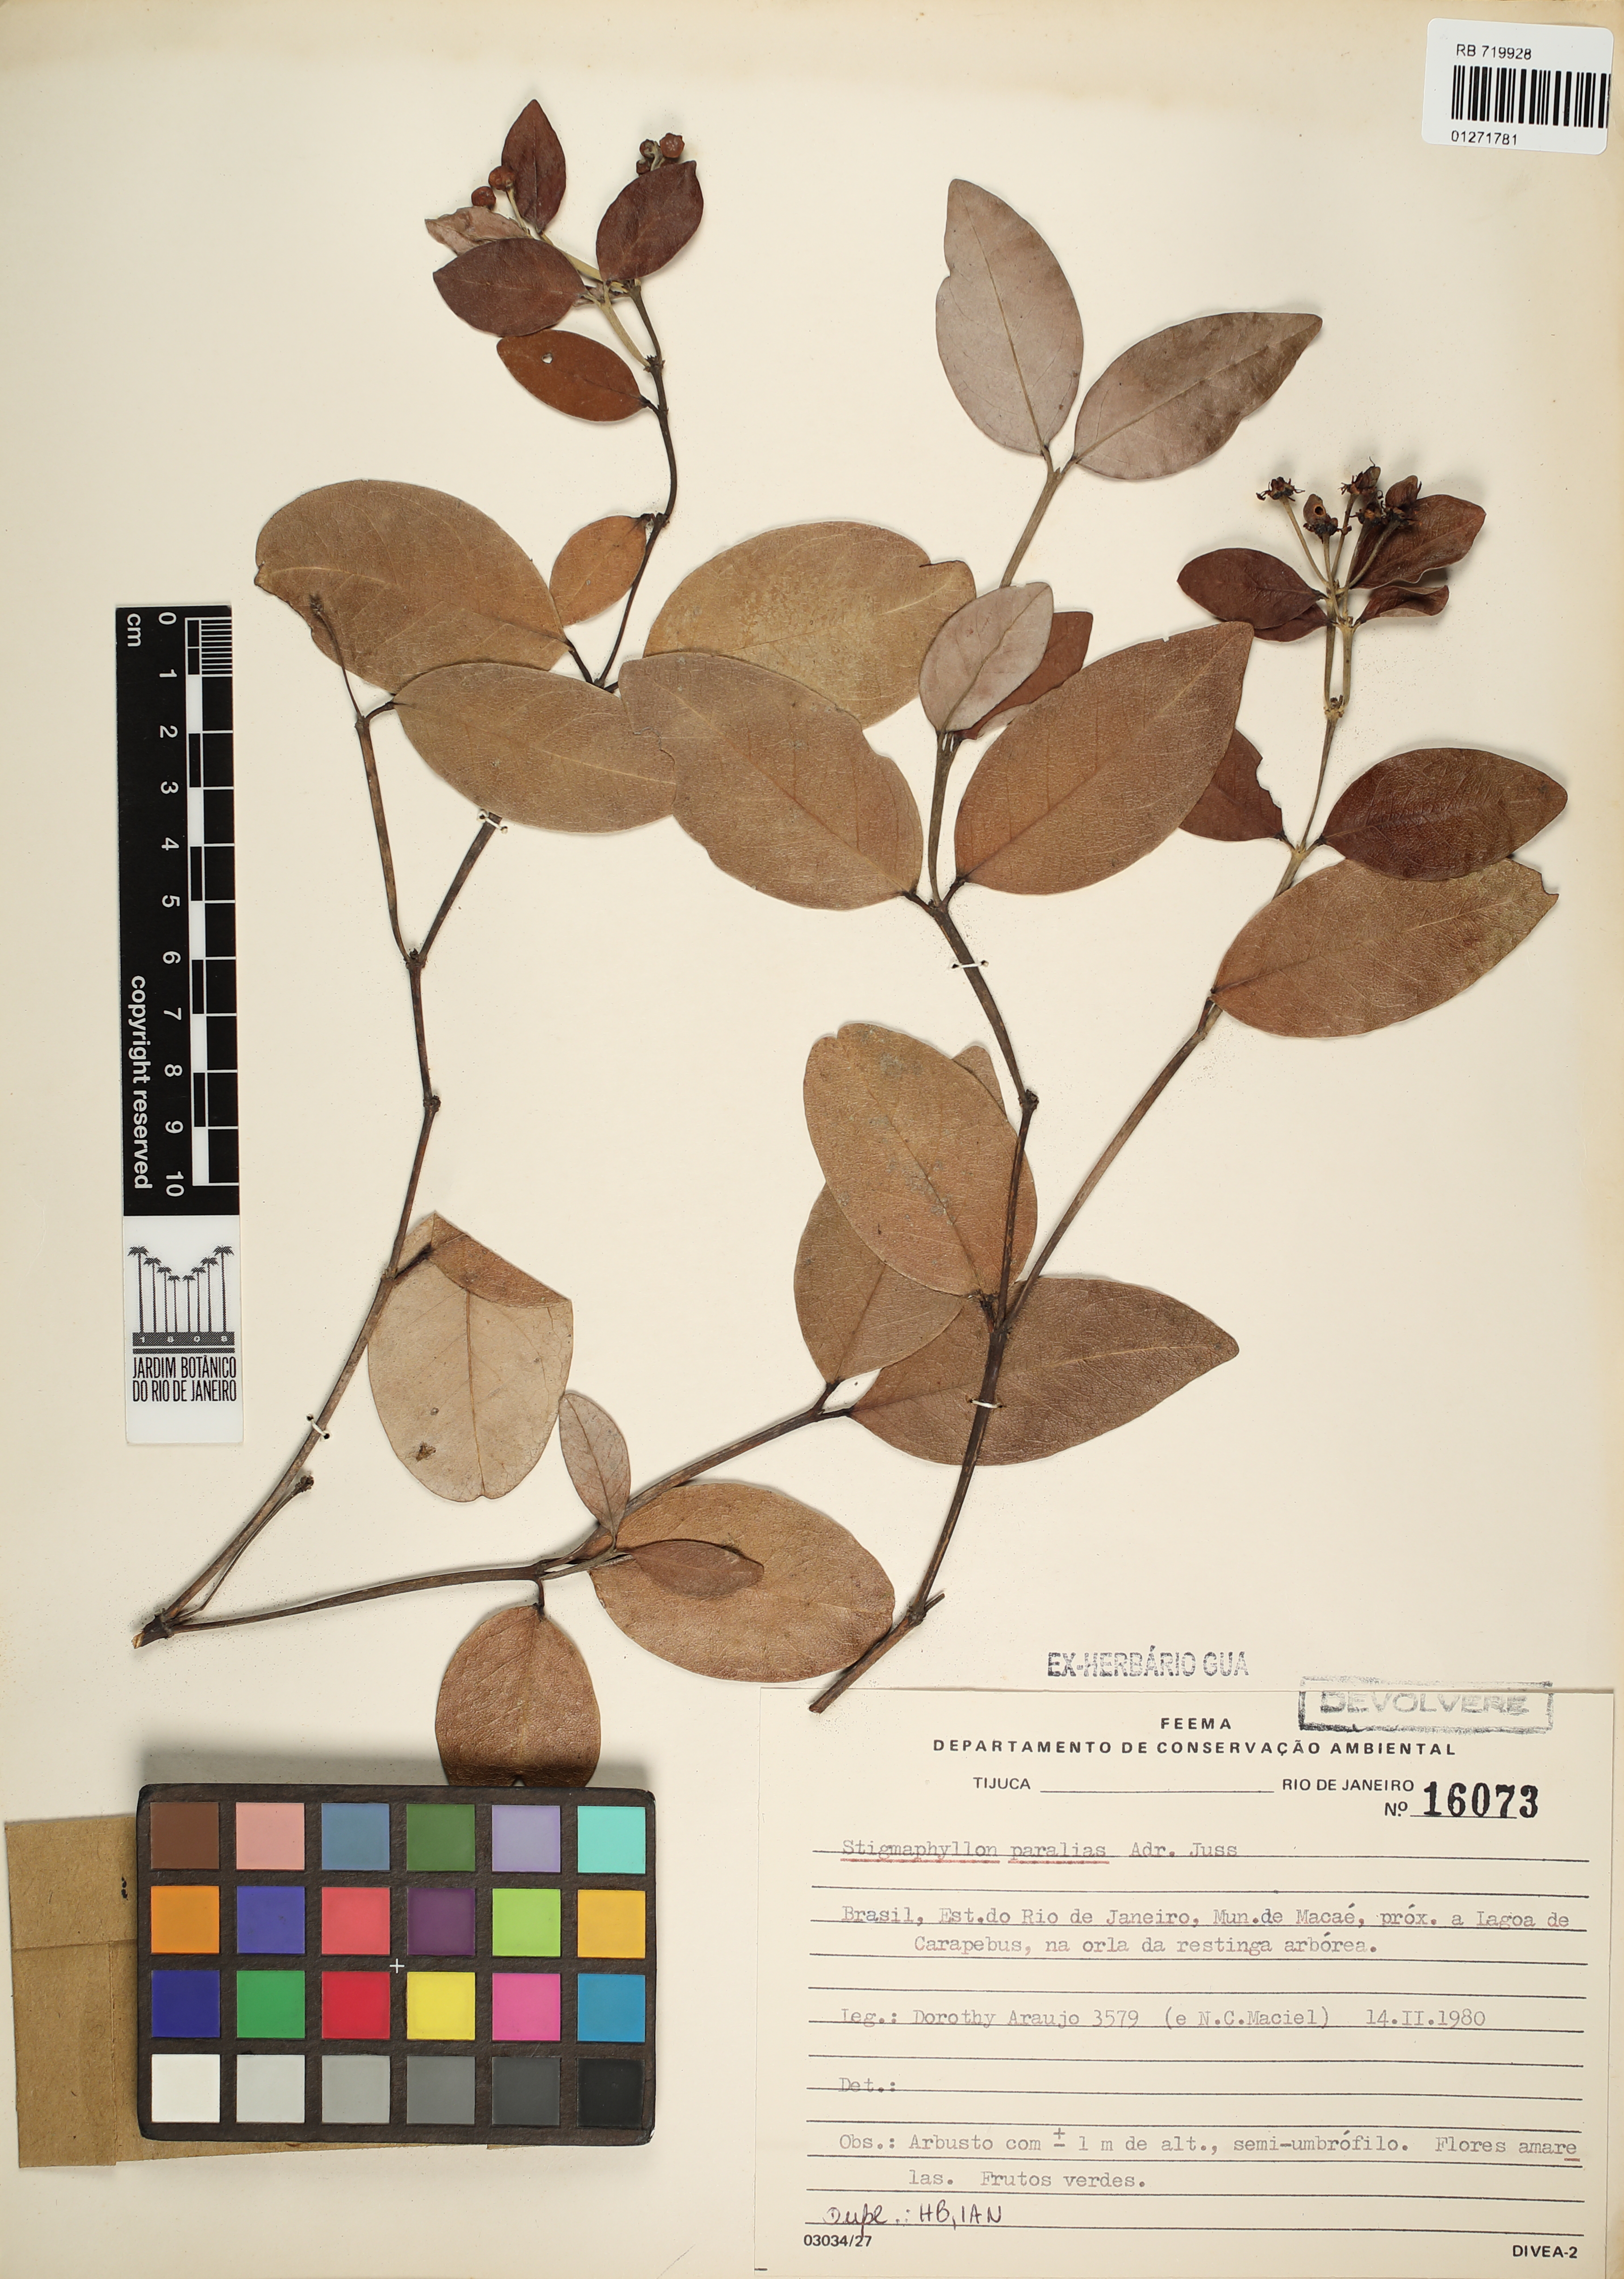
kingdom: Plantae
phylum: Tracheophyta
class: Magnoliopsida
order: Malpighiales
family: Malpighiaceae
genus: Stigmaphyllon
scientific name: Stigmaphyllon paralias
